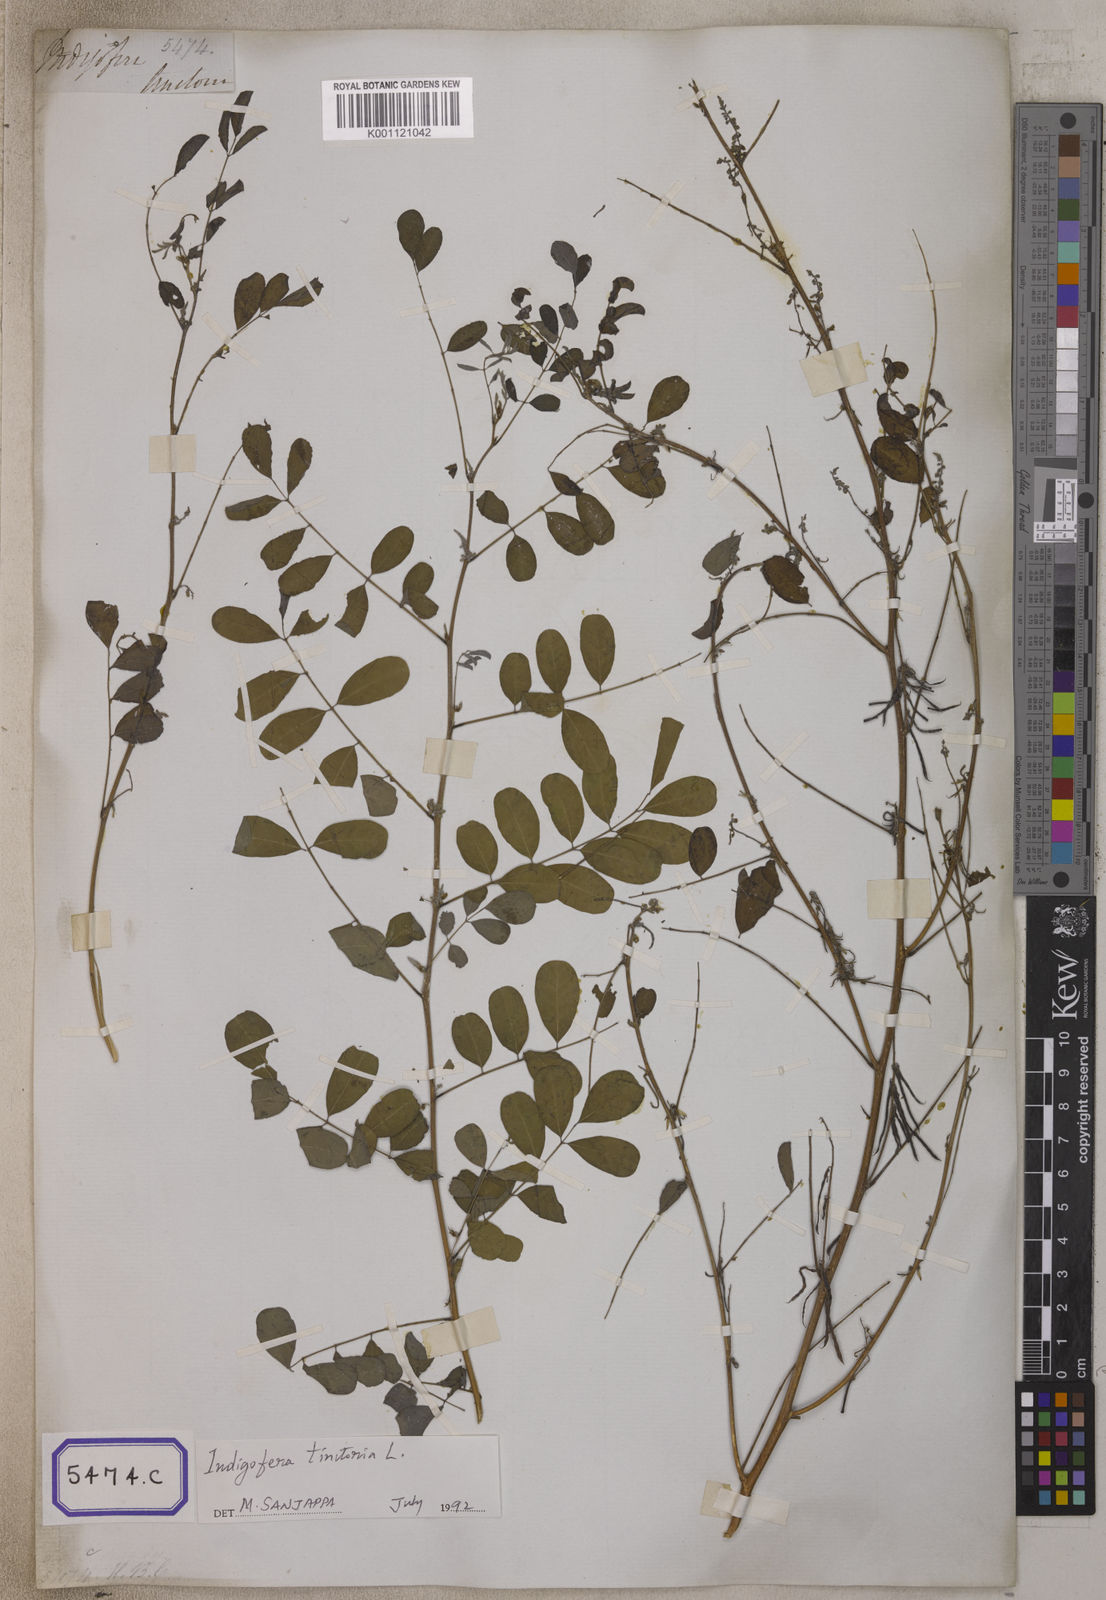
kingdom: Plantae
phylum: Tracheophyta
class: Magnoliopsida
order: Fabales
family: Fabaceae
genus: Indigofera
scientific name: Indigofera tinctoria
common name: True indigo
